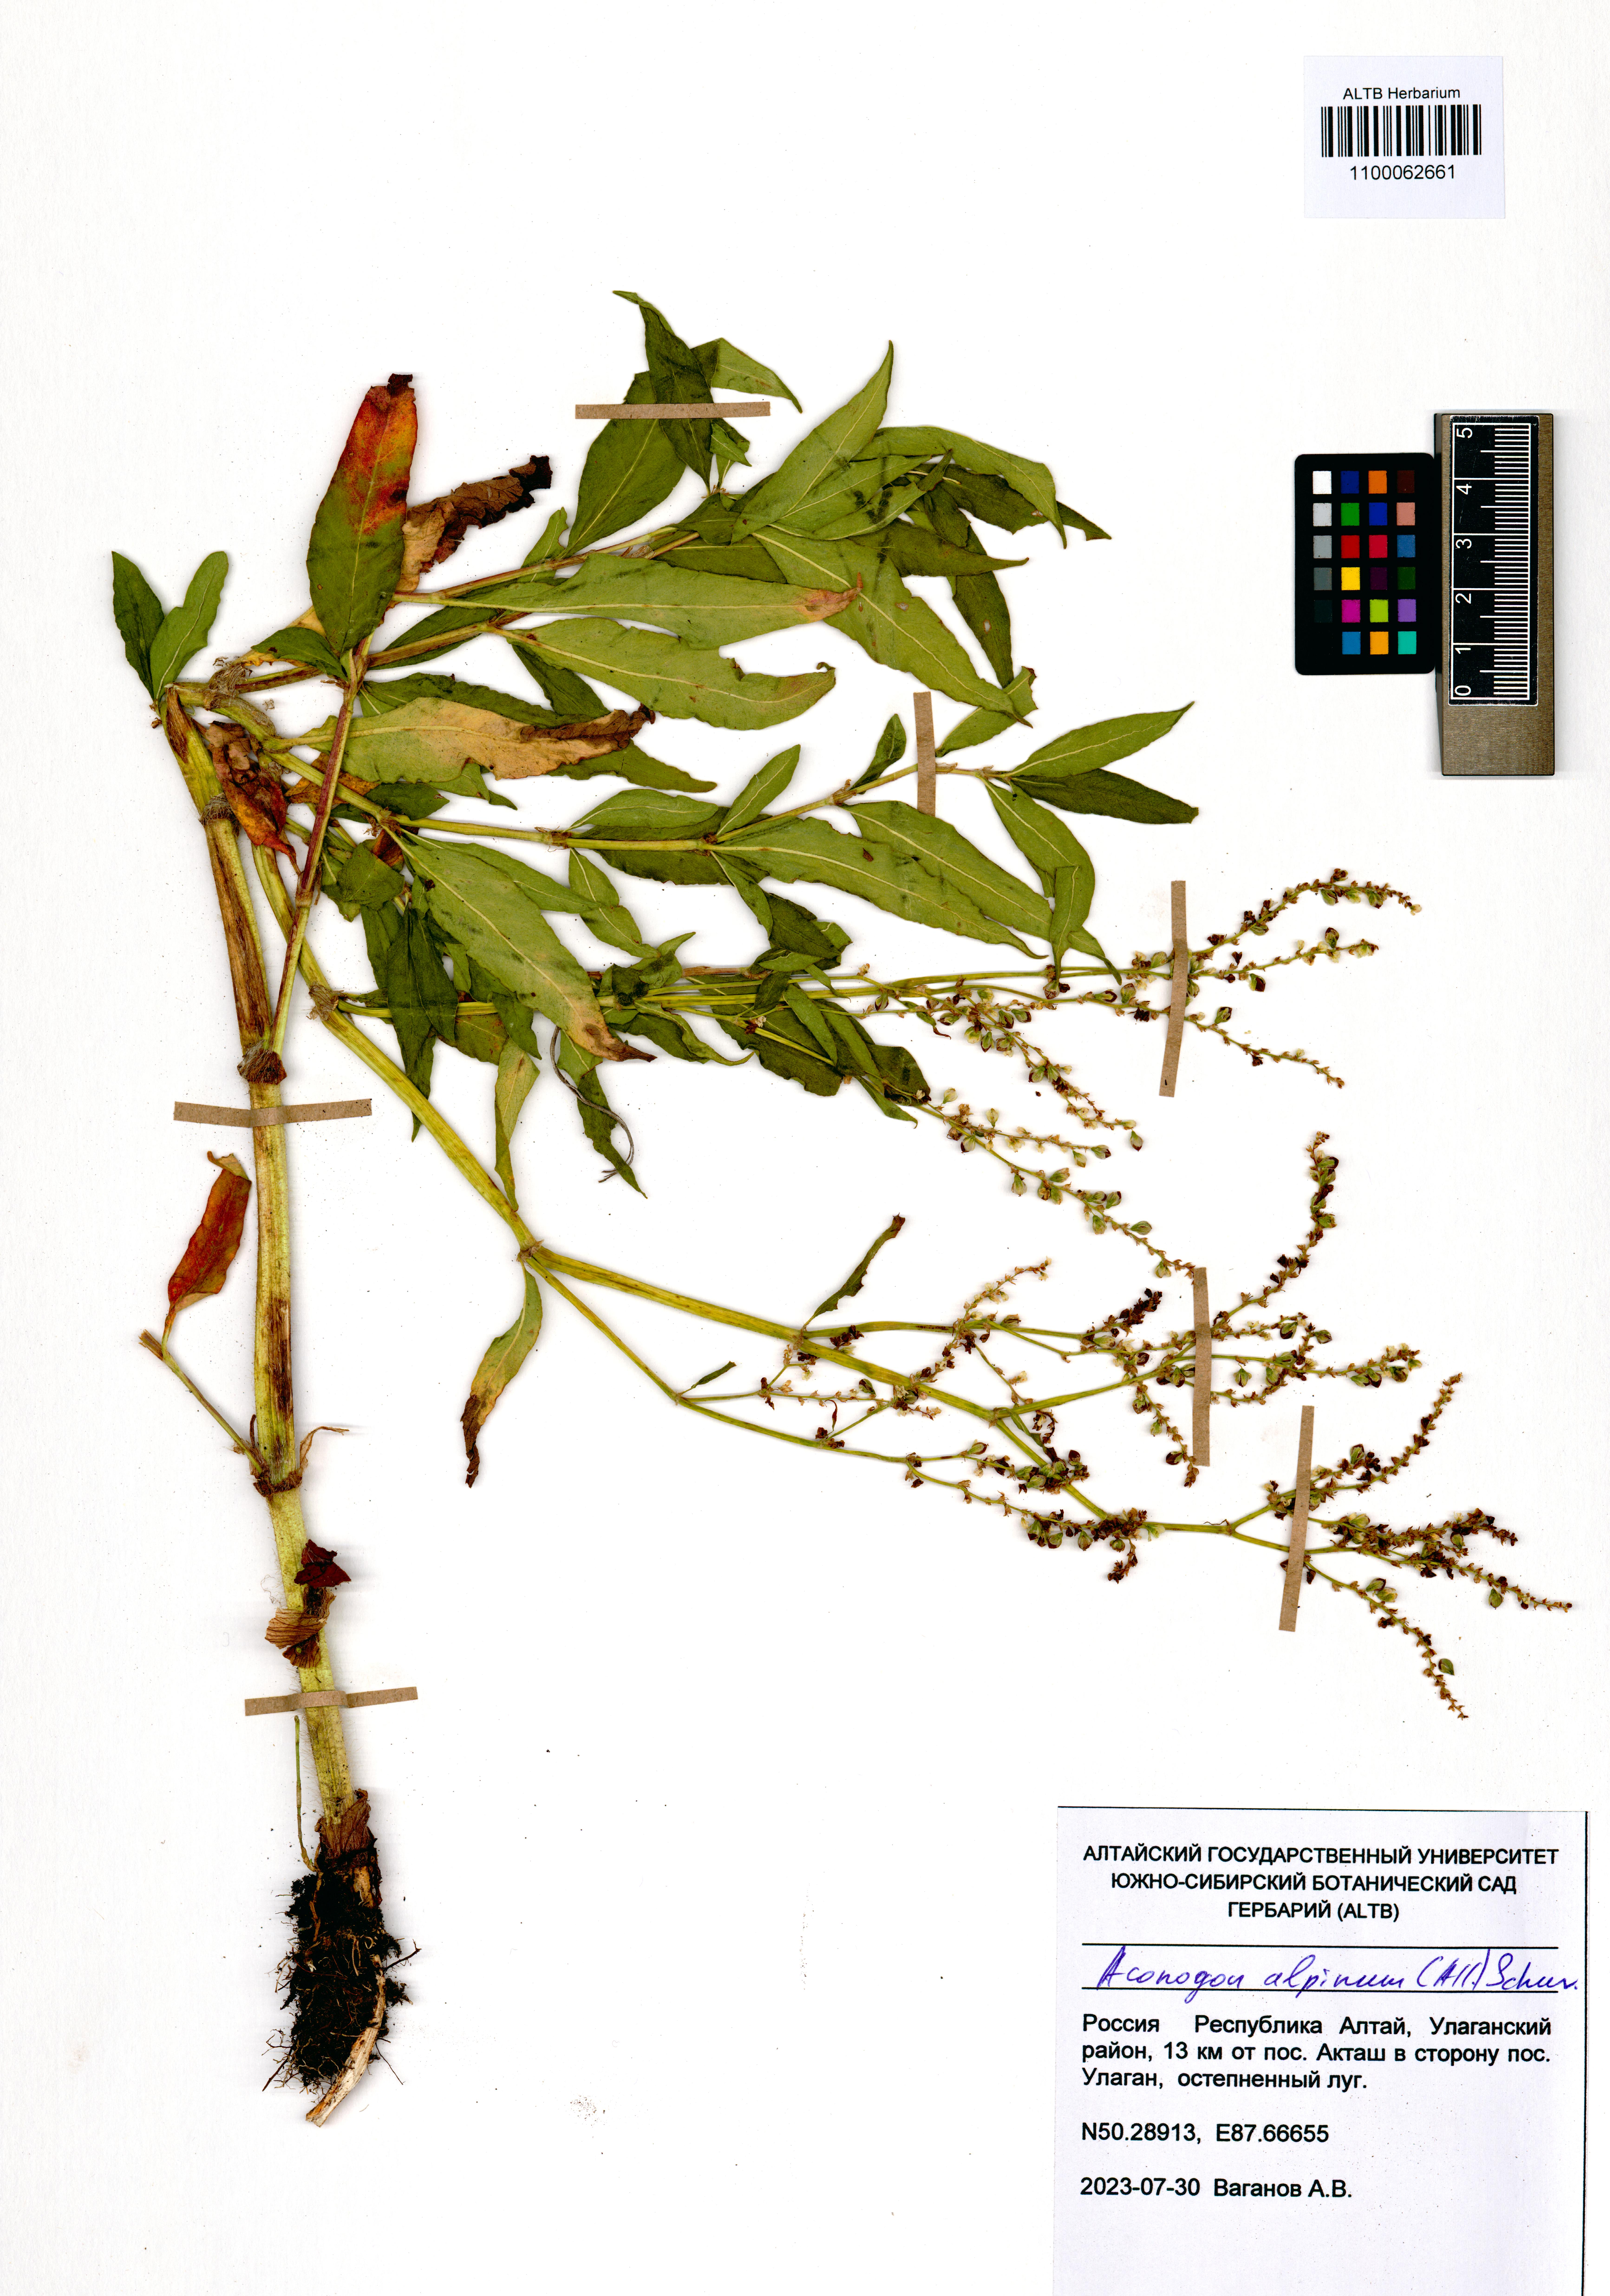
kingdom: Plantae
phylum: Tracheophyta
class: Magnoliopsida
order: Caryophyllales
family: Polygonaceae
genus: Koenigia
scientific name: Koenigia alpina
